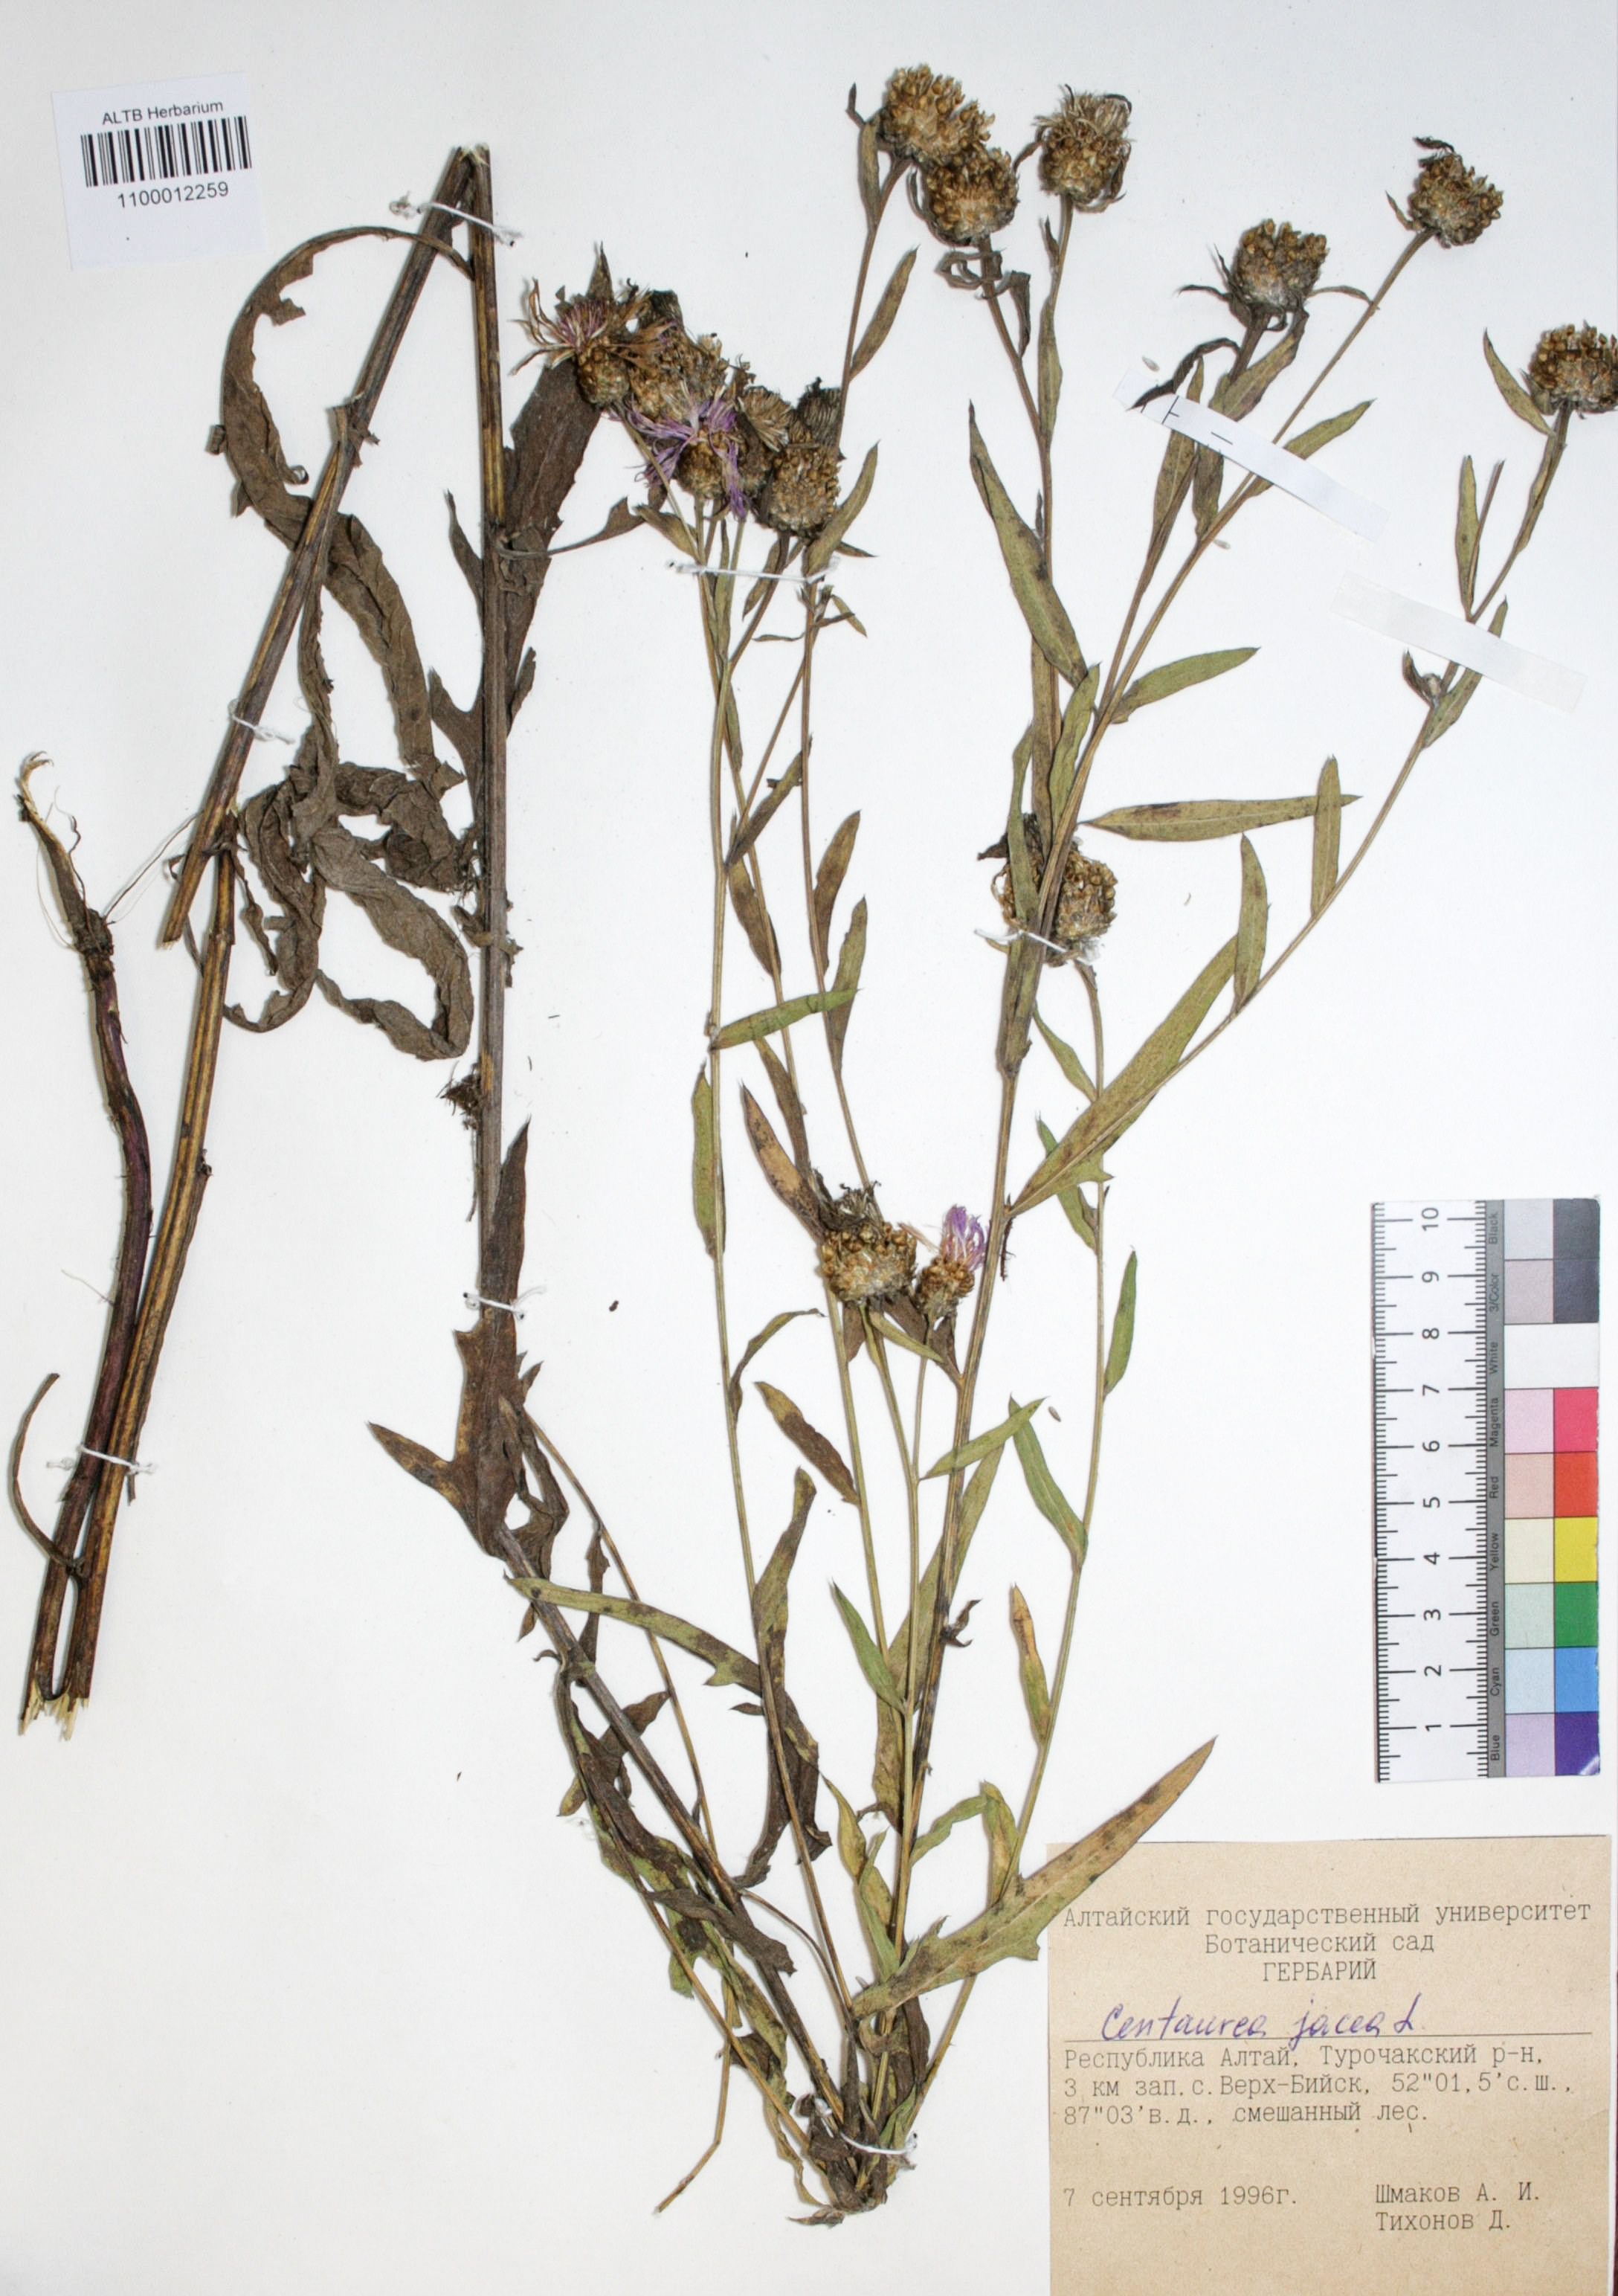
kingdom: Plantae
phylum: Tracheophyta
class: Magnoliopsida
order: Asterales
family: Asteraceae
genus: Centaurea
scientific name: Centaurea jacea
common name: Brown knapweed
